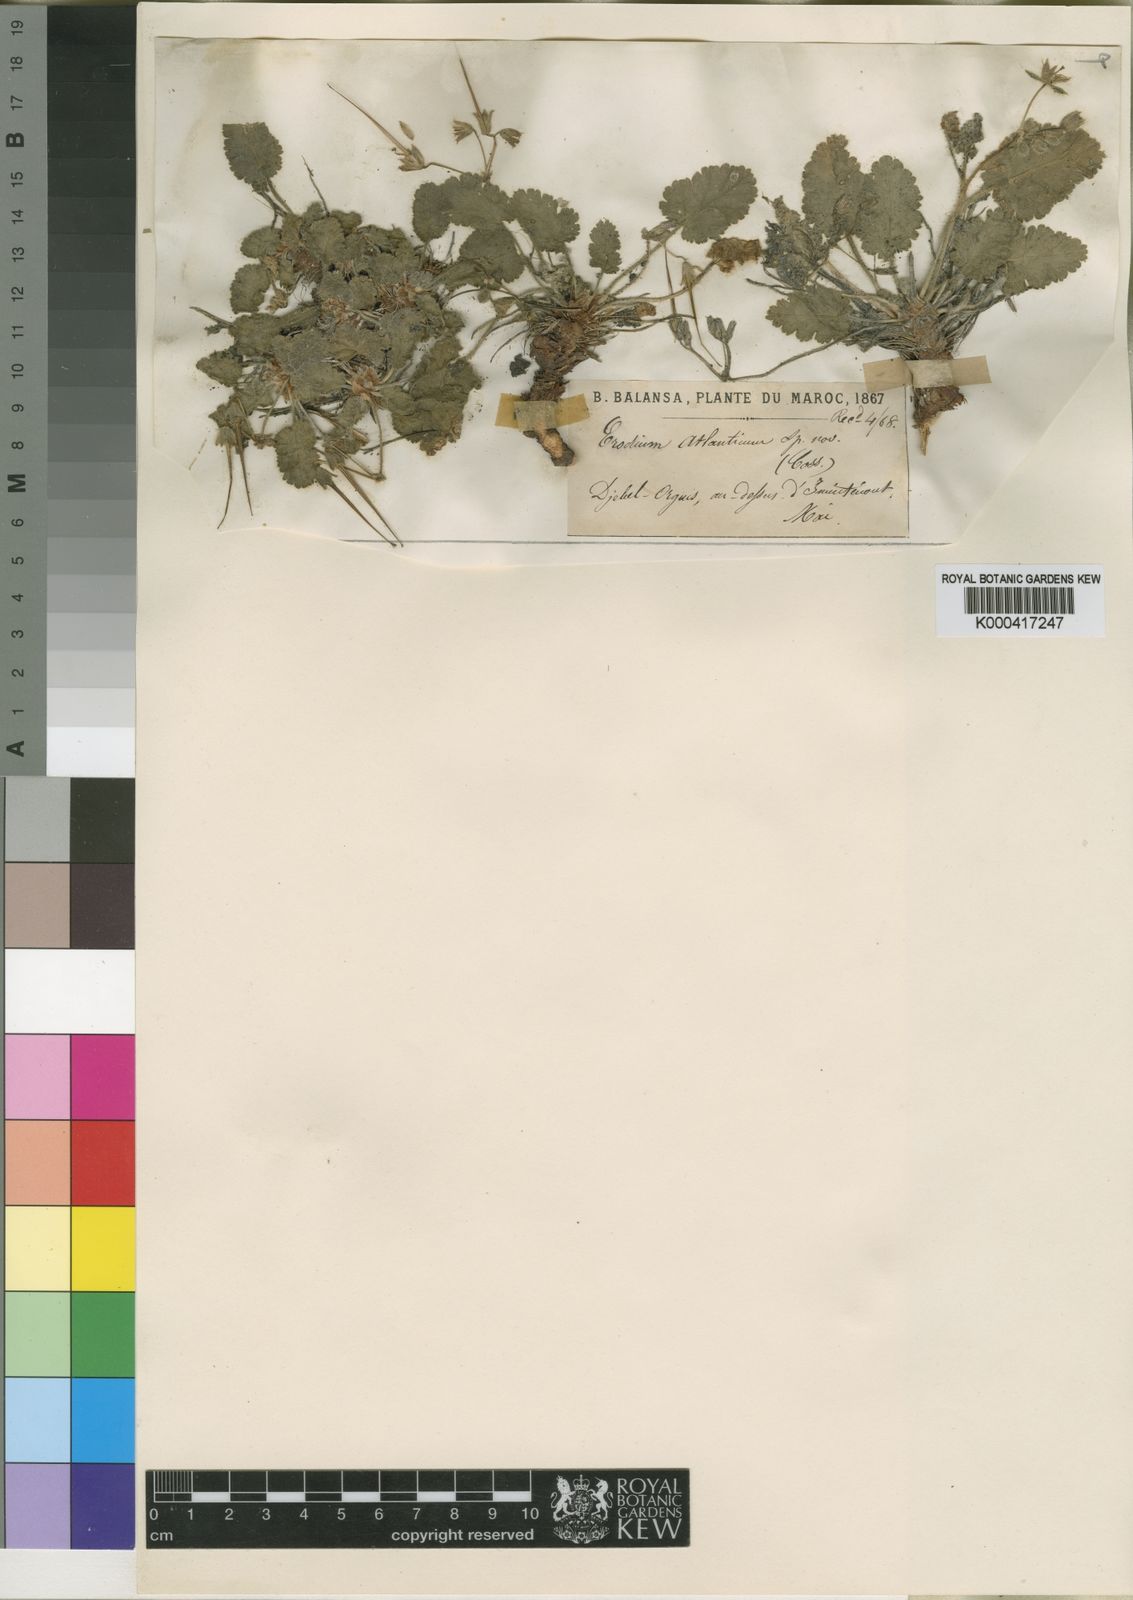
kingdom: Plantae
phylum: Tracheophyta
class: Magnoliopsida
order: Geraniales
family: Geraniaceae
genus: Erodium
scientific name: Erodium atlanticum
